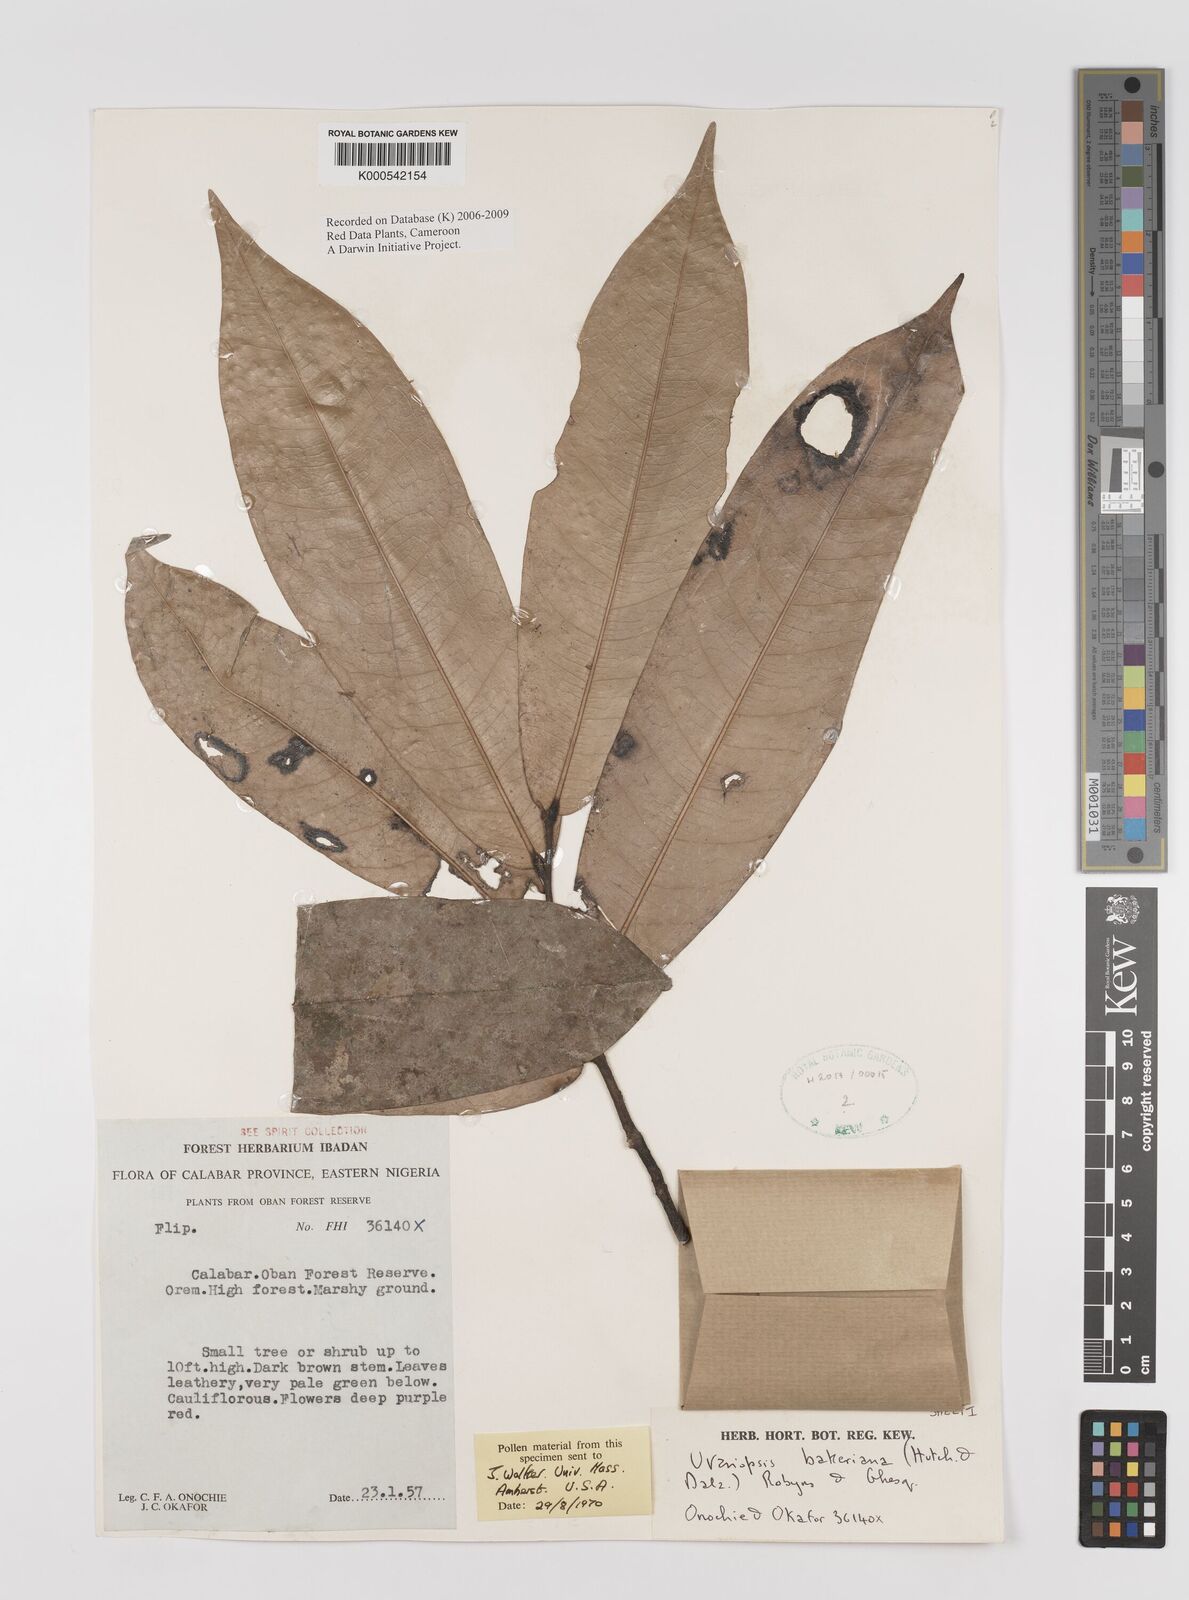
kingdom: Plantae
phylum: Tracheophyta
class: Magnoliopsida
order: Magnoliales
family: Annonaceae
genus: Uvariopsis
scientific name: Uvariopsis bakeriana
